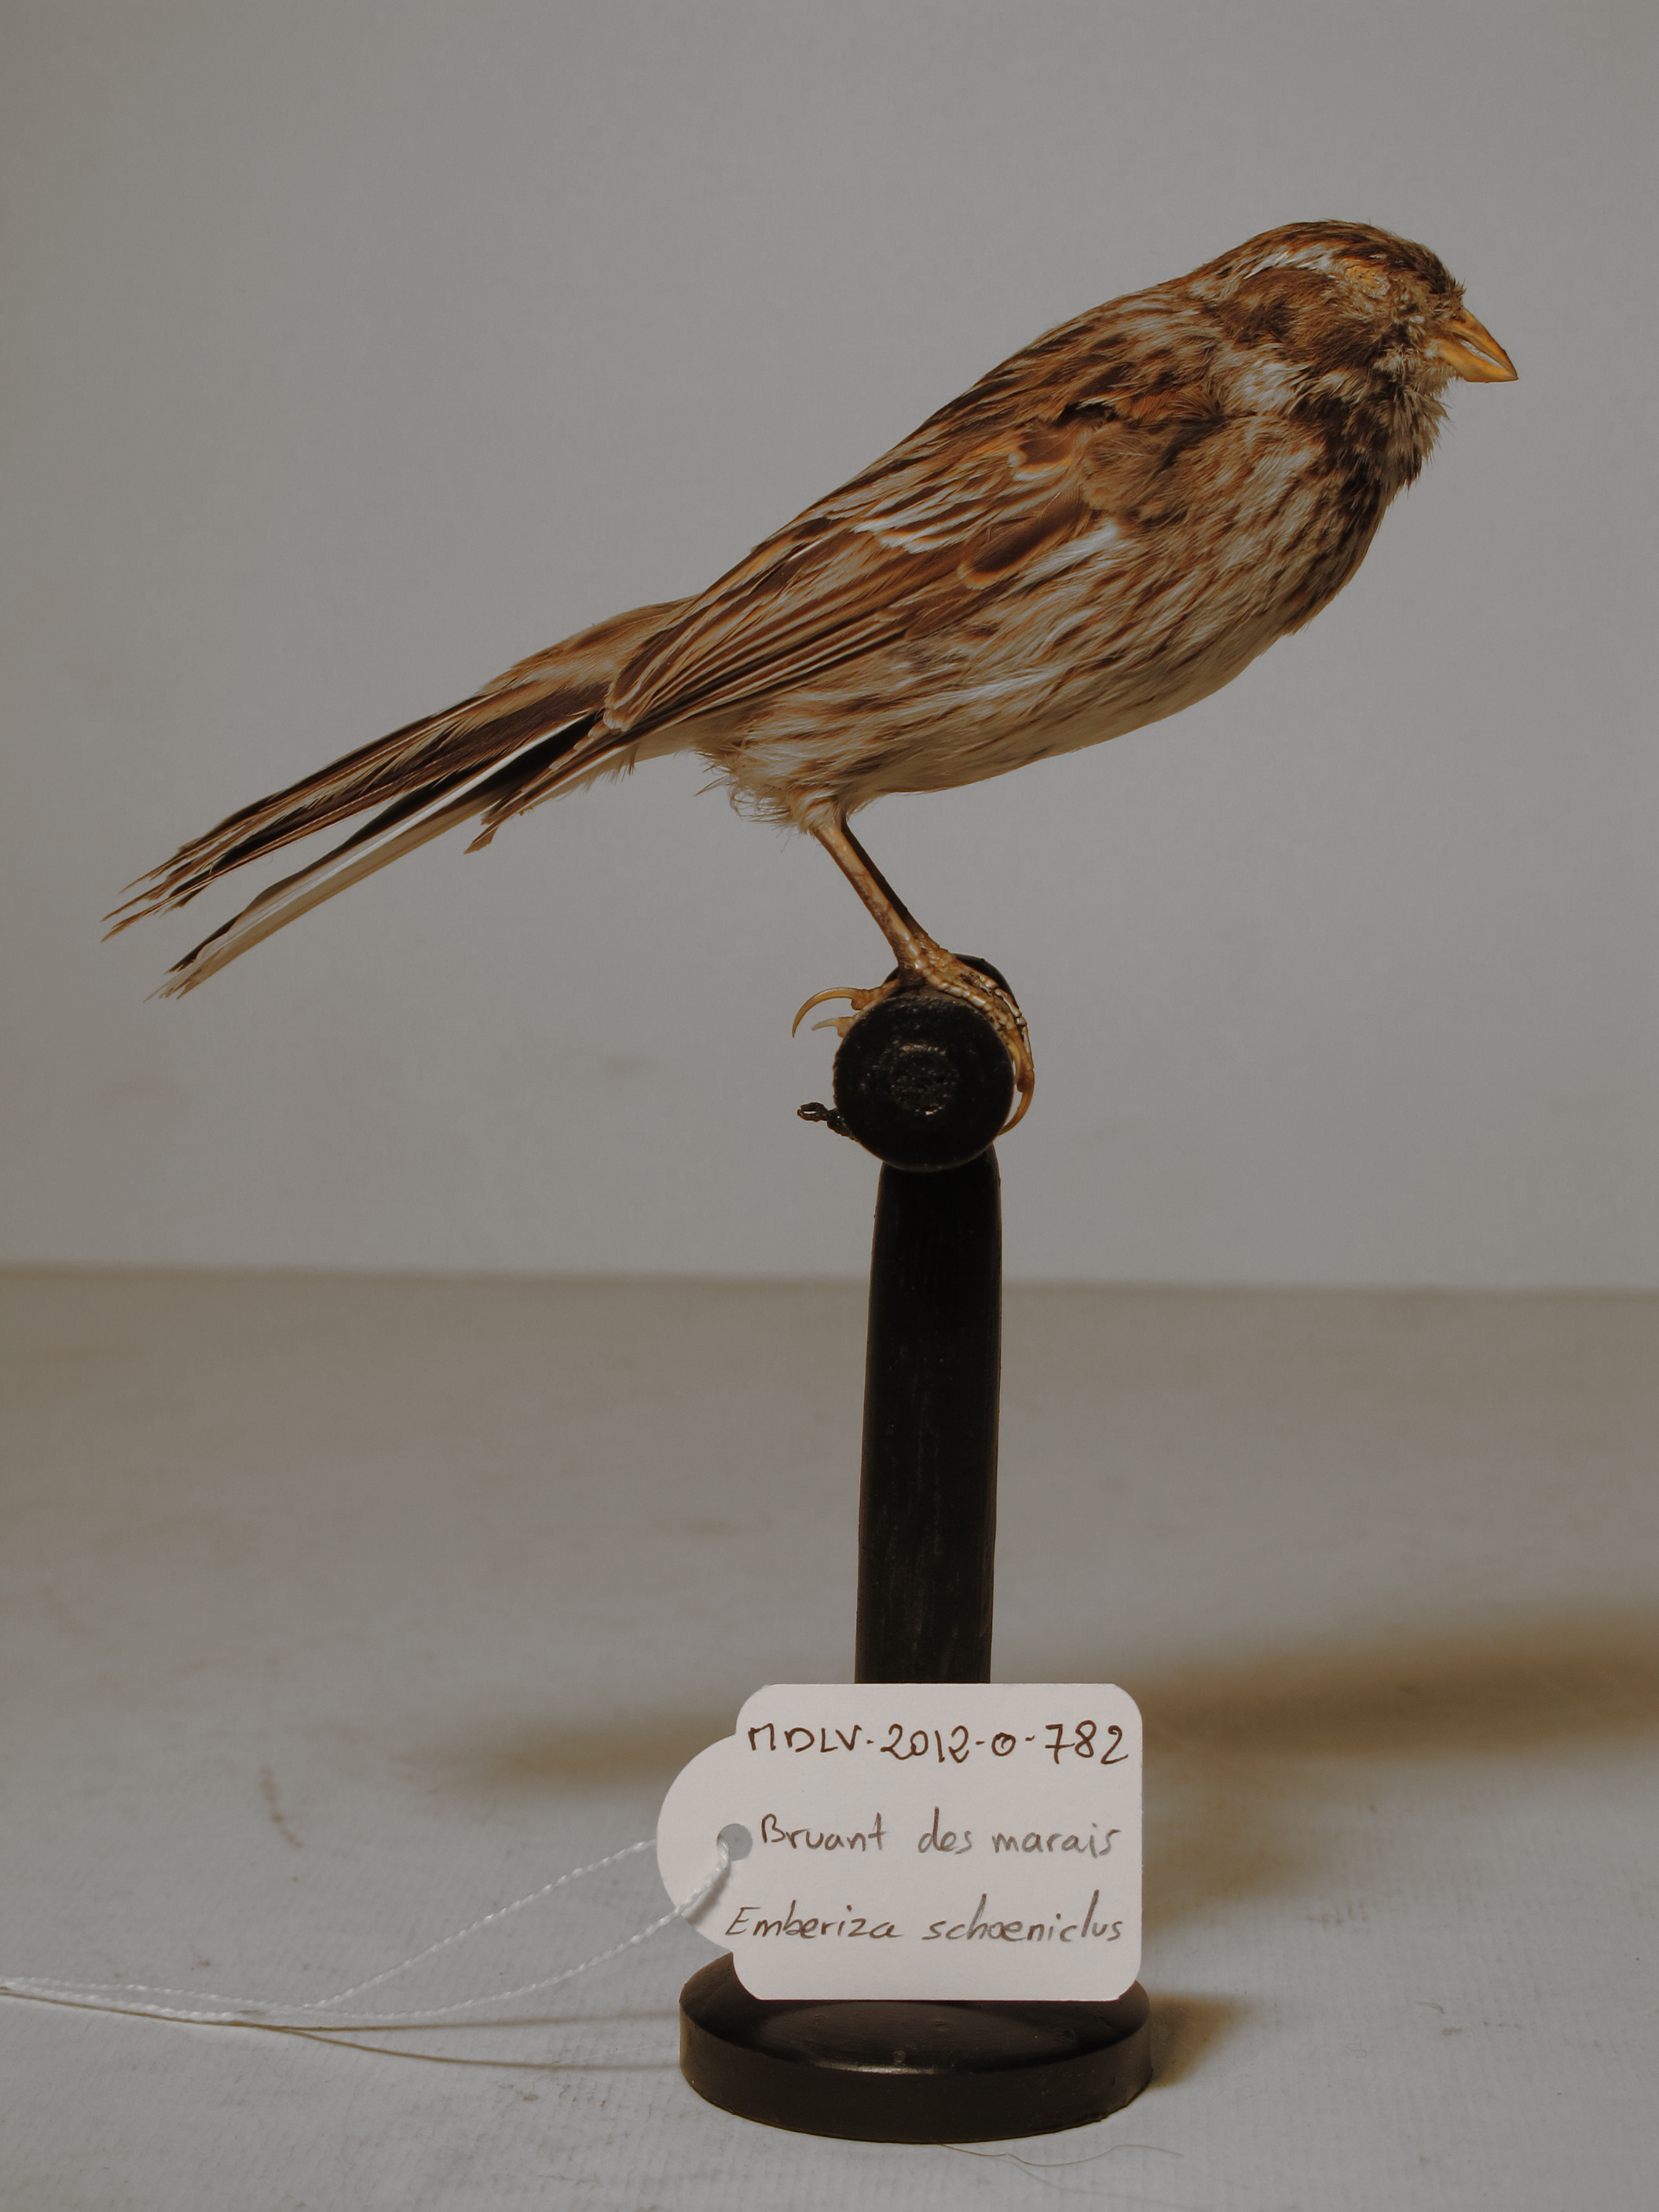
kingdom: Animalia
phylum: Chordata
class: Aves
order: Passeriformes
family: Emberizidae
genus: Emberiza
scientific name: Emberiza schoeniclus
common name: Reed Bunting
